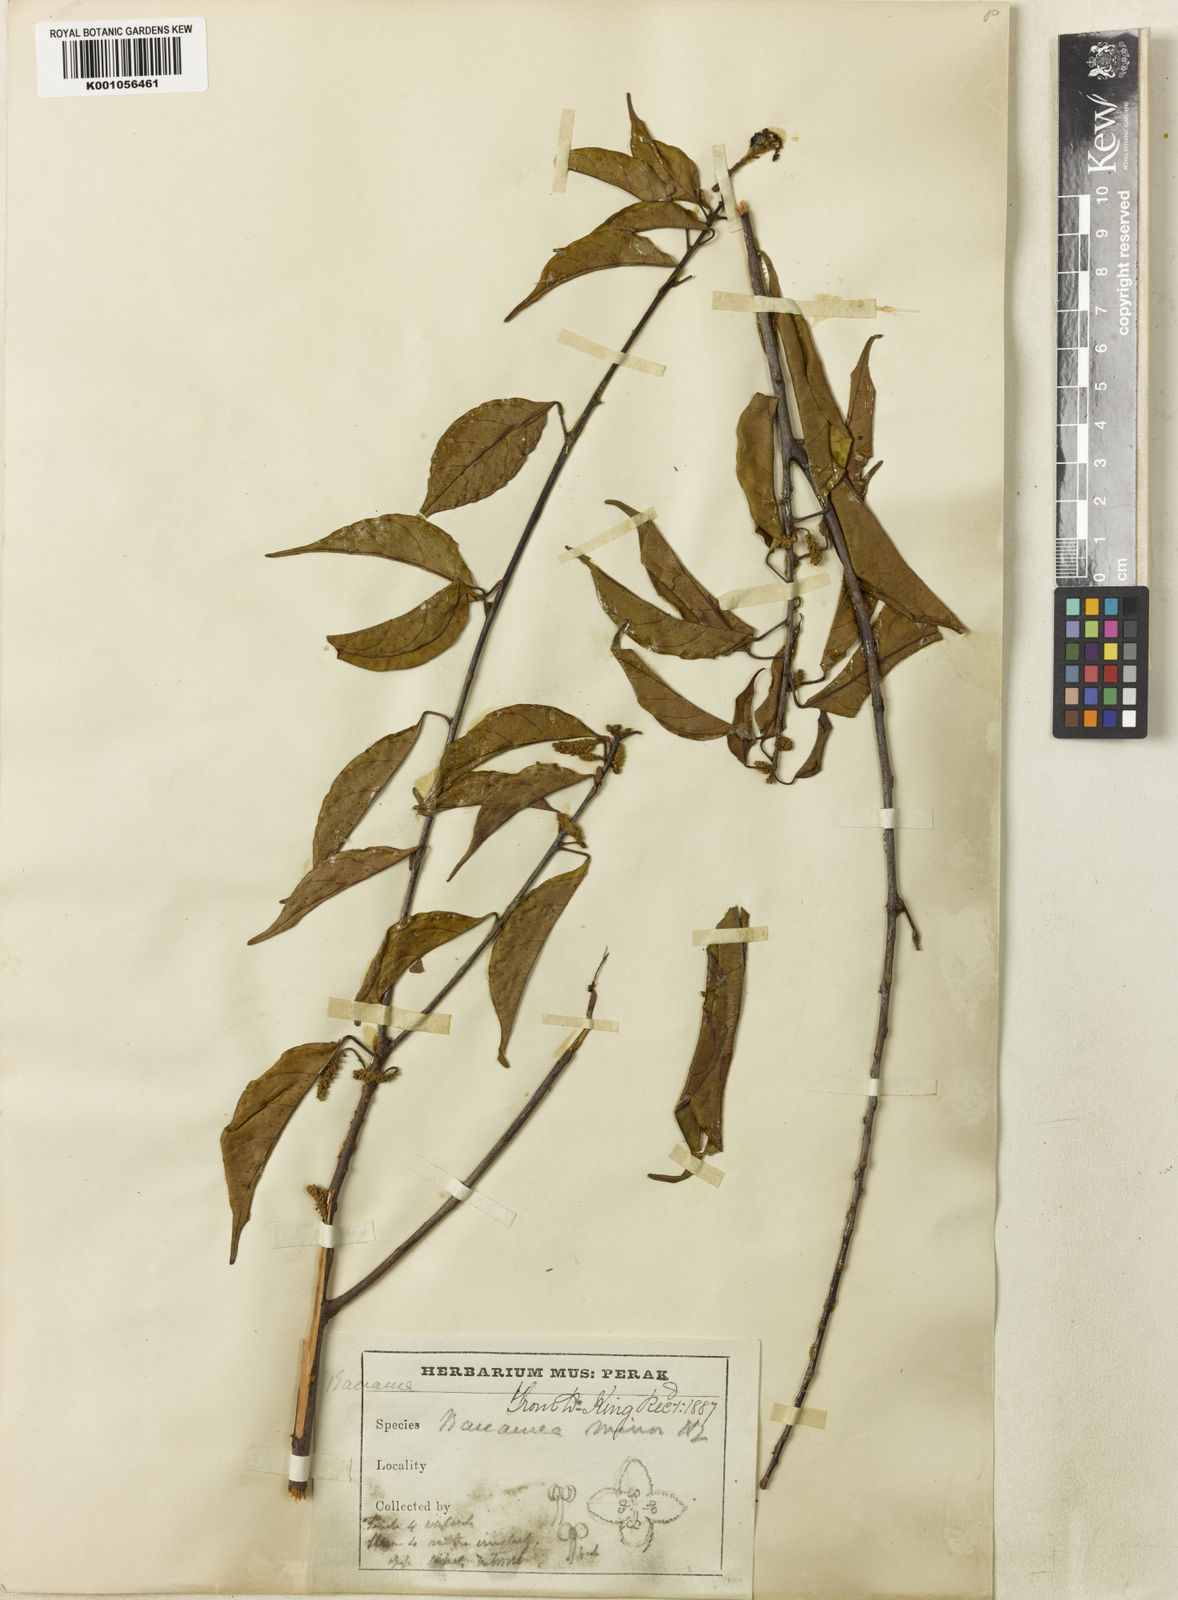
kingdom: Plantae
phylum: Tracheophyta
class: Magnoliopsida
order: Malpighiales
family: Phyllanthaceae
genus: Baccaurea
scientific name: Baccaurea minor
